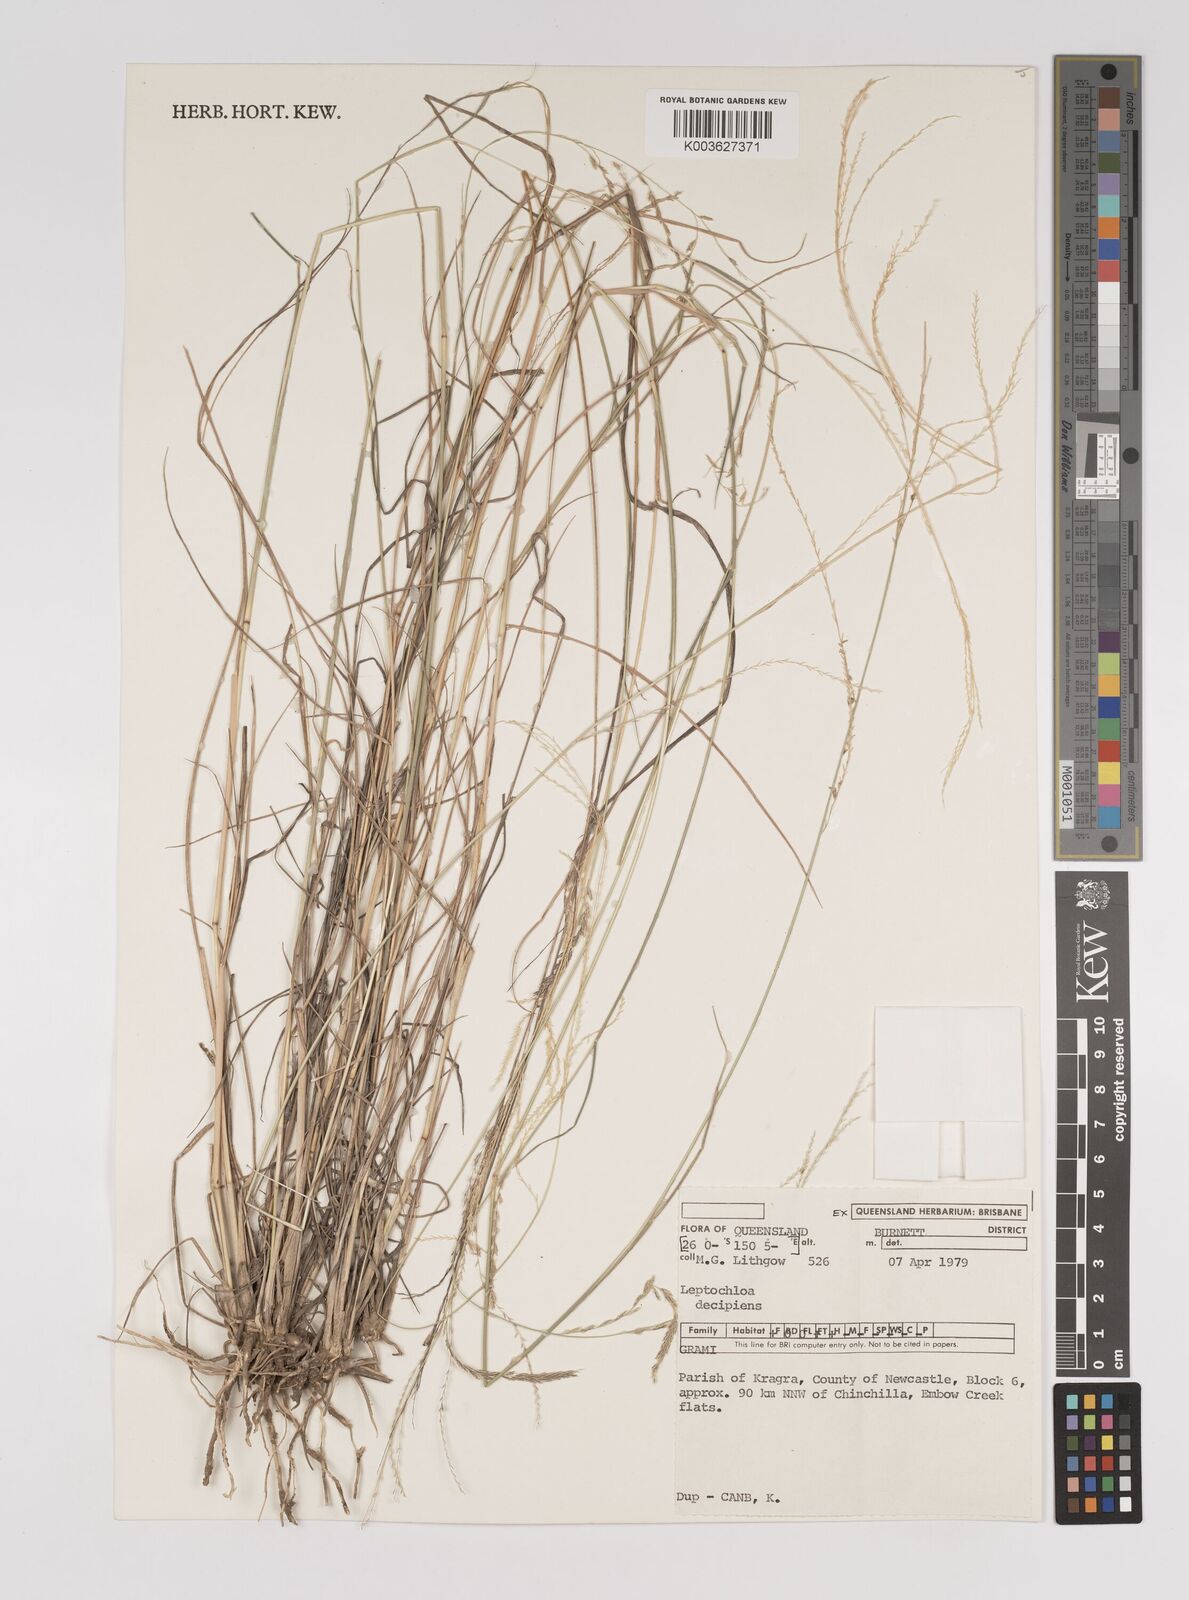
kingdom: Plantae
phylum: Tracheophyta
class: Liliopsida
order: Poales
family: Poaceae
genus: Leptochloa
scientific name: Leptochloa decipiens
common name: Australian sprangletop
